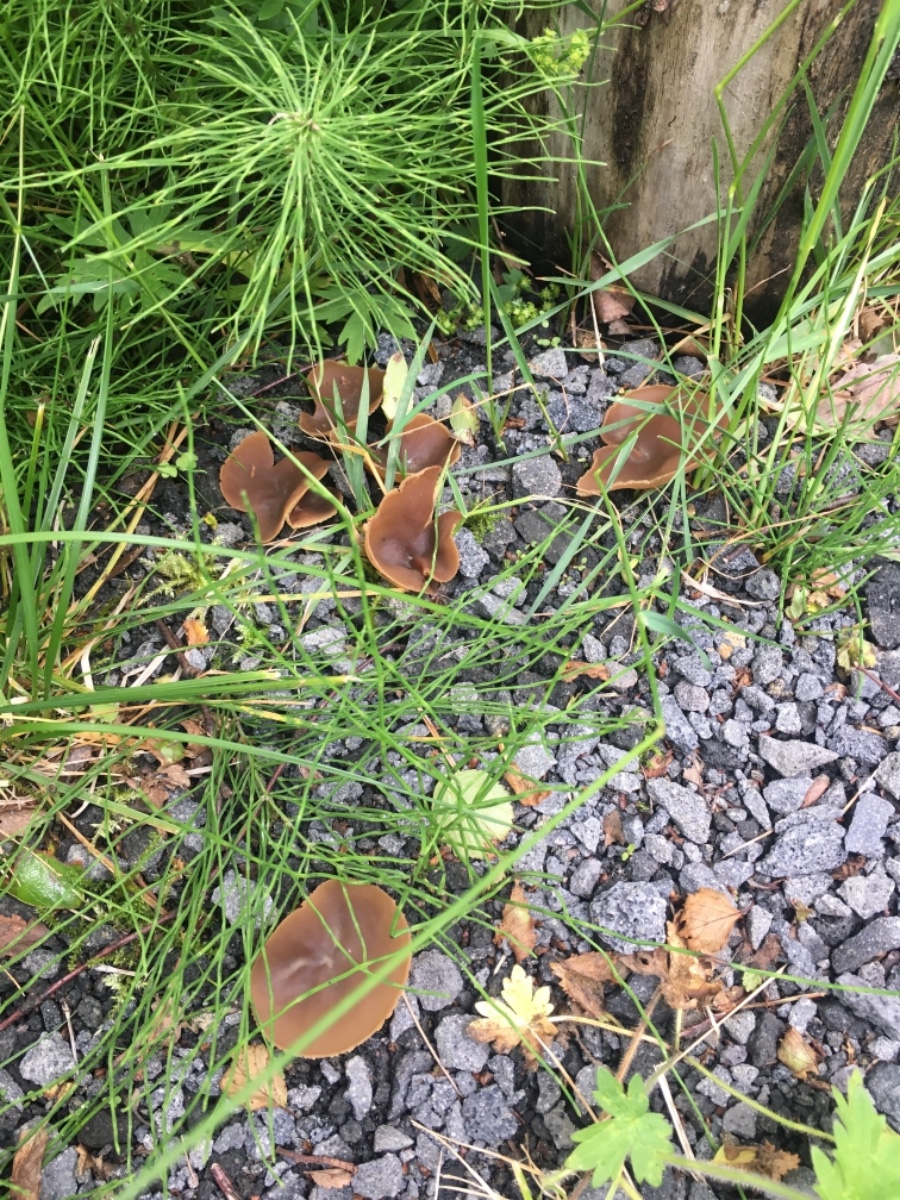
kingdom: Fungi
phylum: Ascomycota
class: Pezizomycetes
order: Pezizales
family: Pezizaceae
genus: Peziza
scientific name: Peziza
